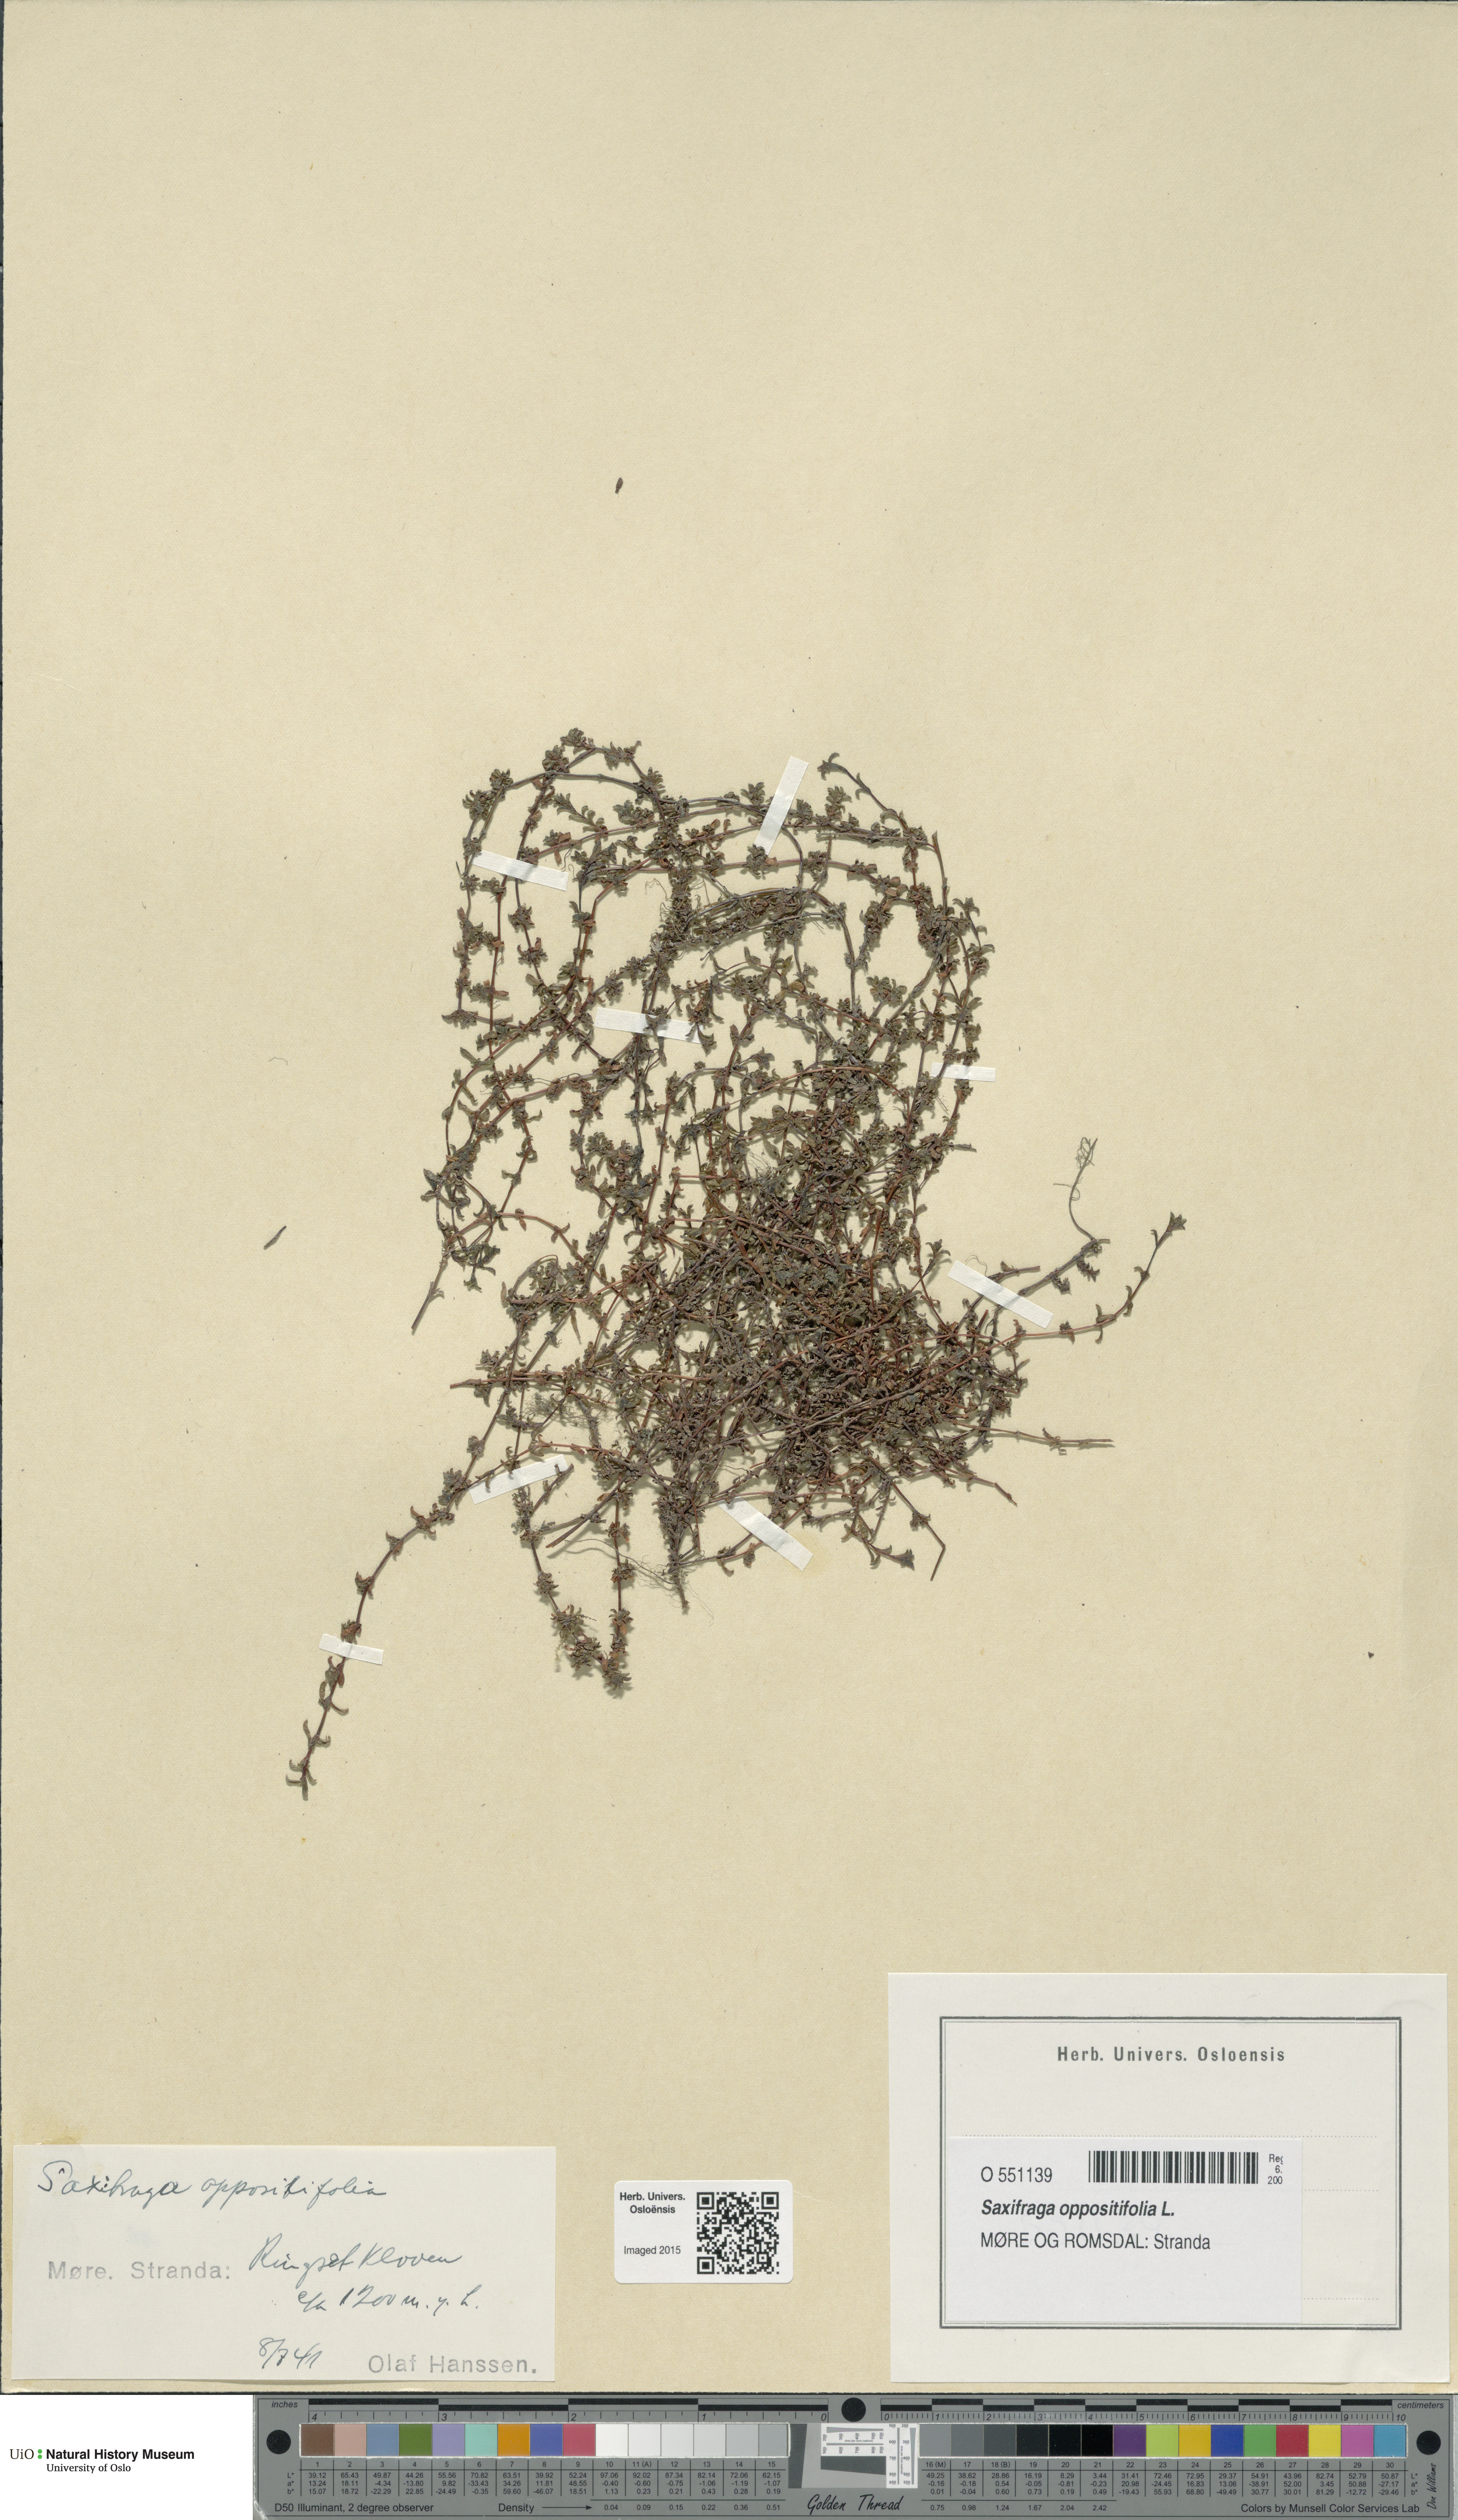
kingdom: Plantae
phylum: Tracheophyta
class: Magnoliopsida
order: Saxifragales
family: Saxifragaceae
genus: Saxifraga
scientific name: Saxifraga oppositifolia
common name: Purple saxifrage
